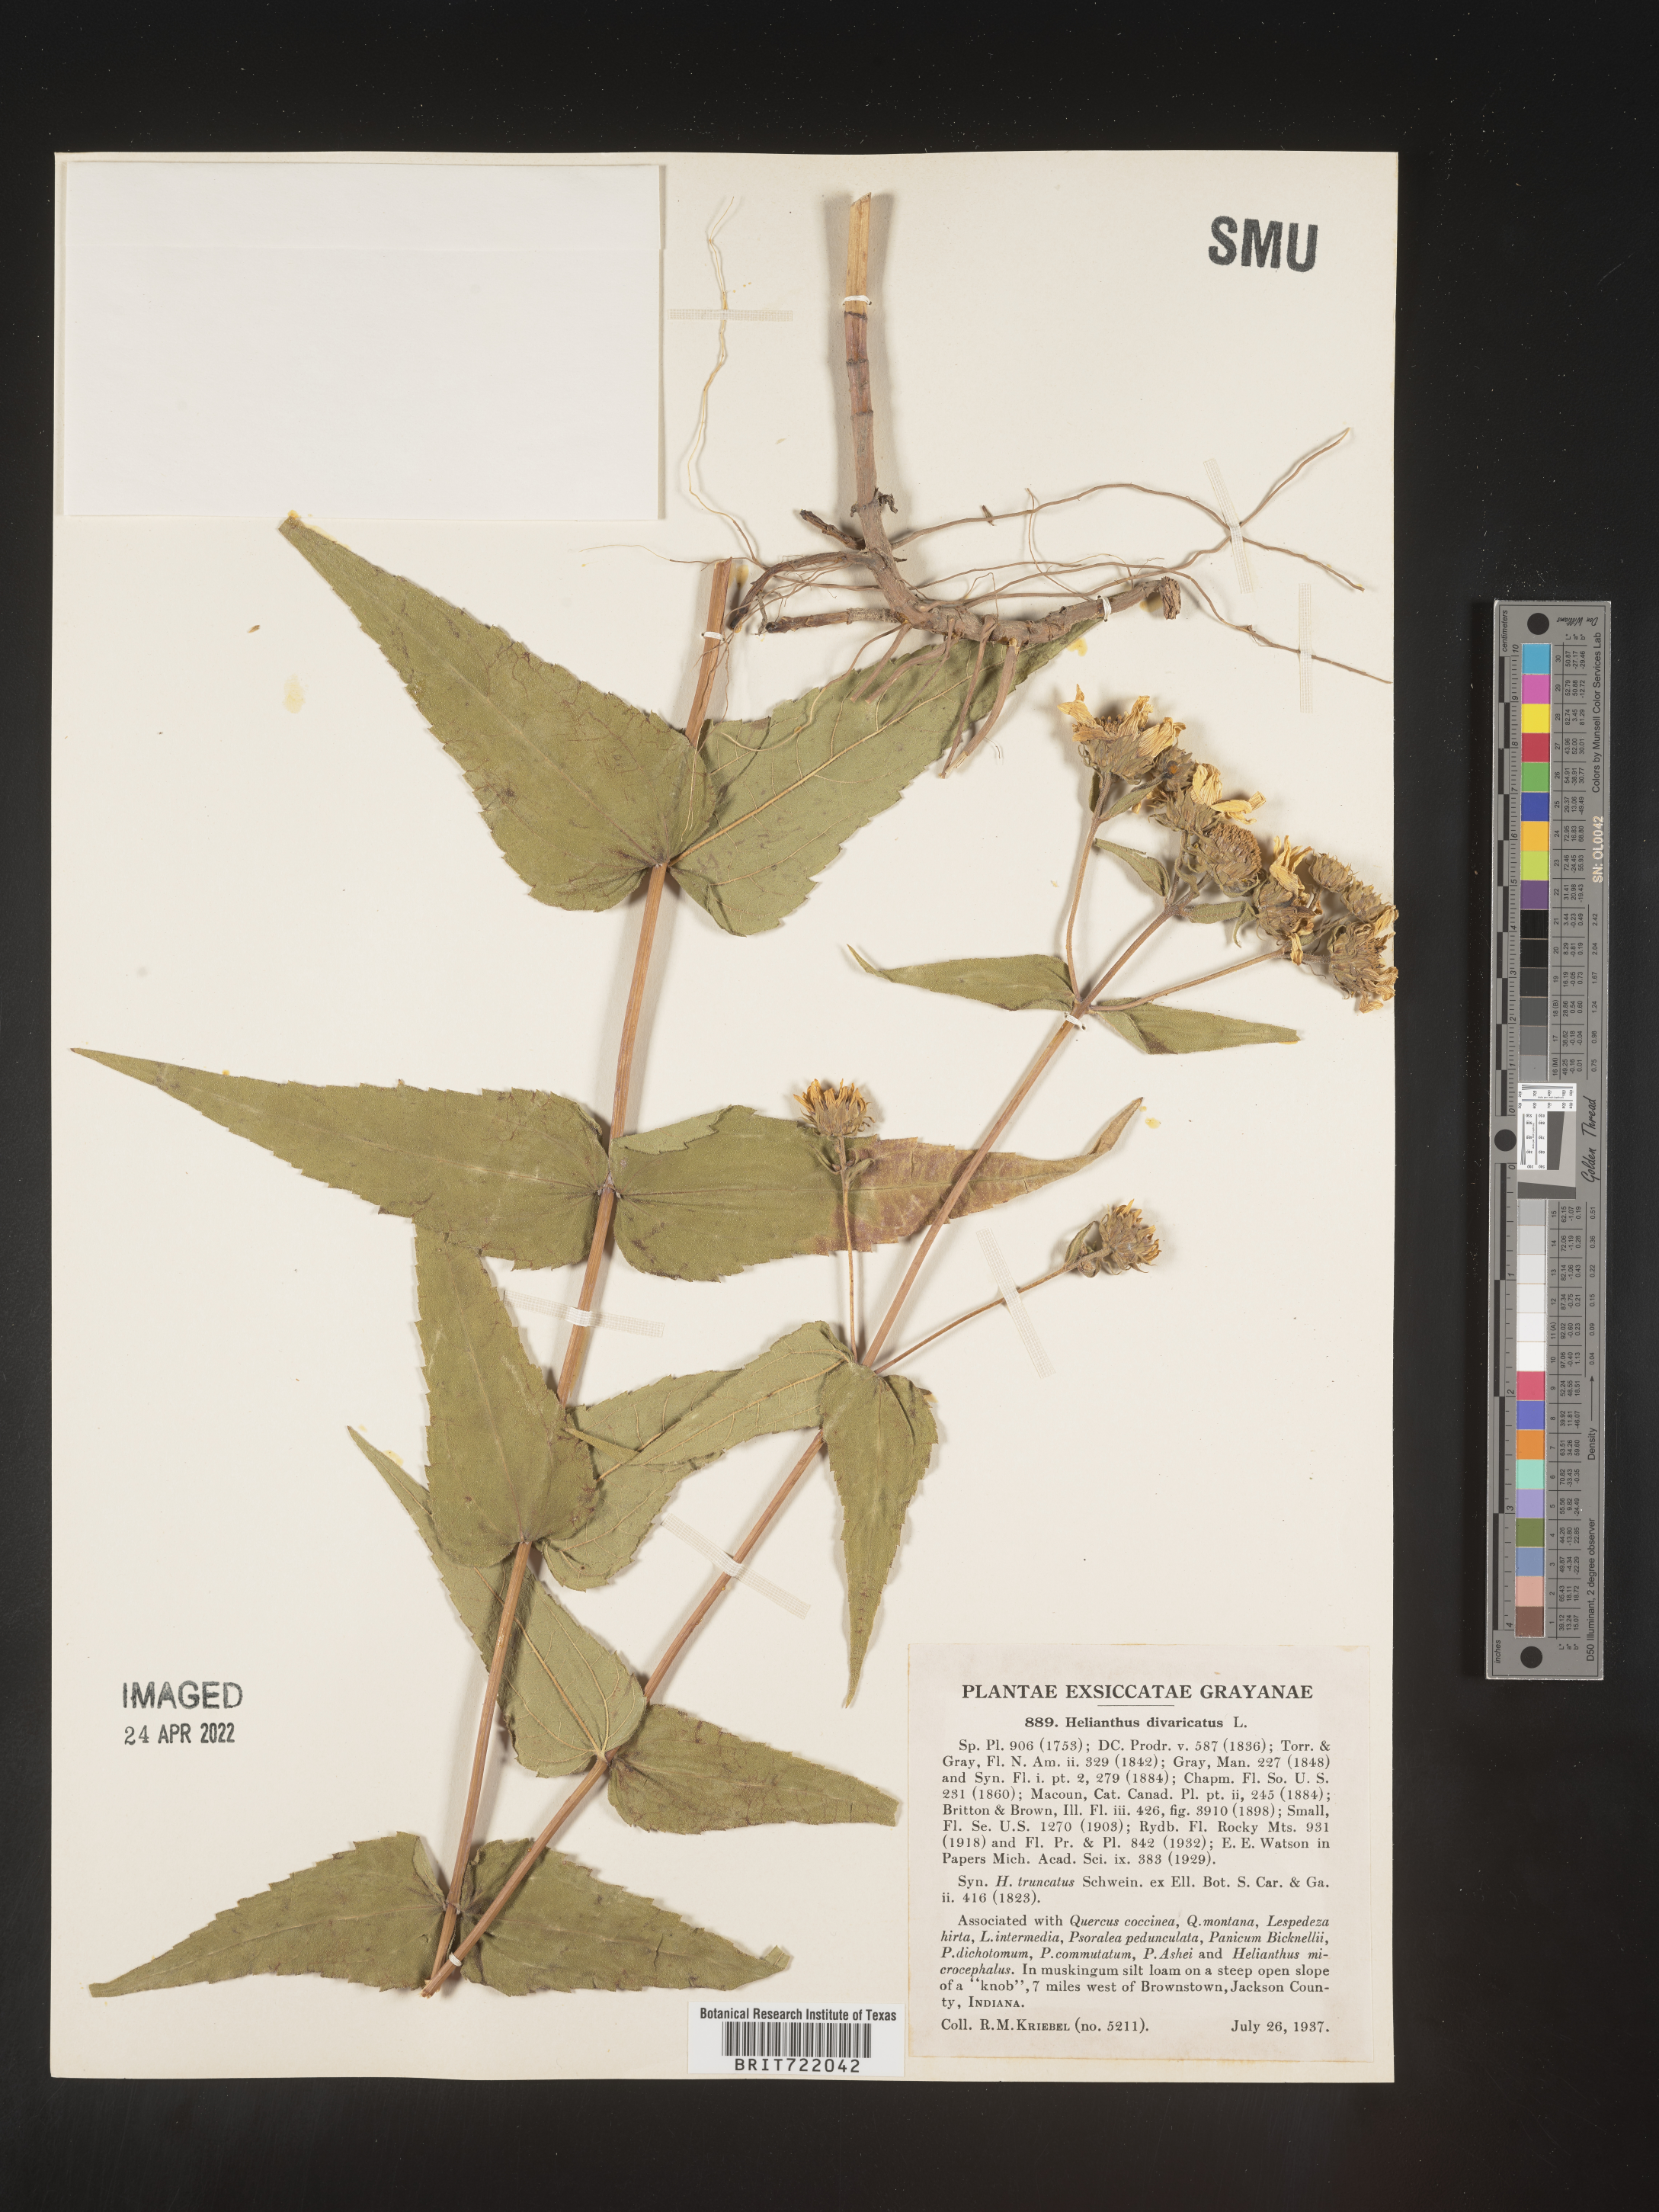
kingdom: Plantae
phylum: Tracheophyta
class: Magnoliopsida
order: Asterales
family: Asteraceae
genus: Helianthus
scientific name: Helianthus divaricatus
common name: Divergent sunflower
